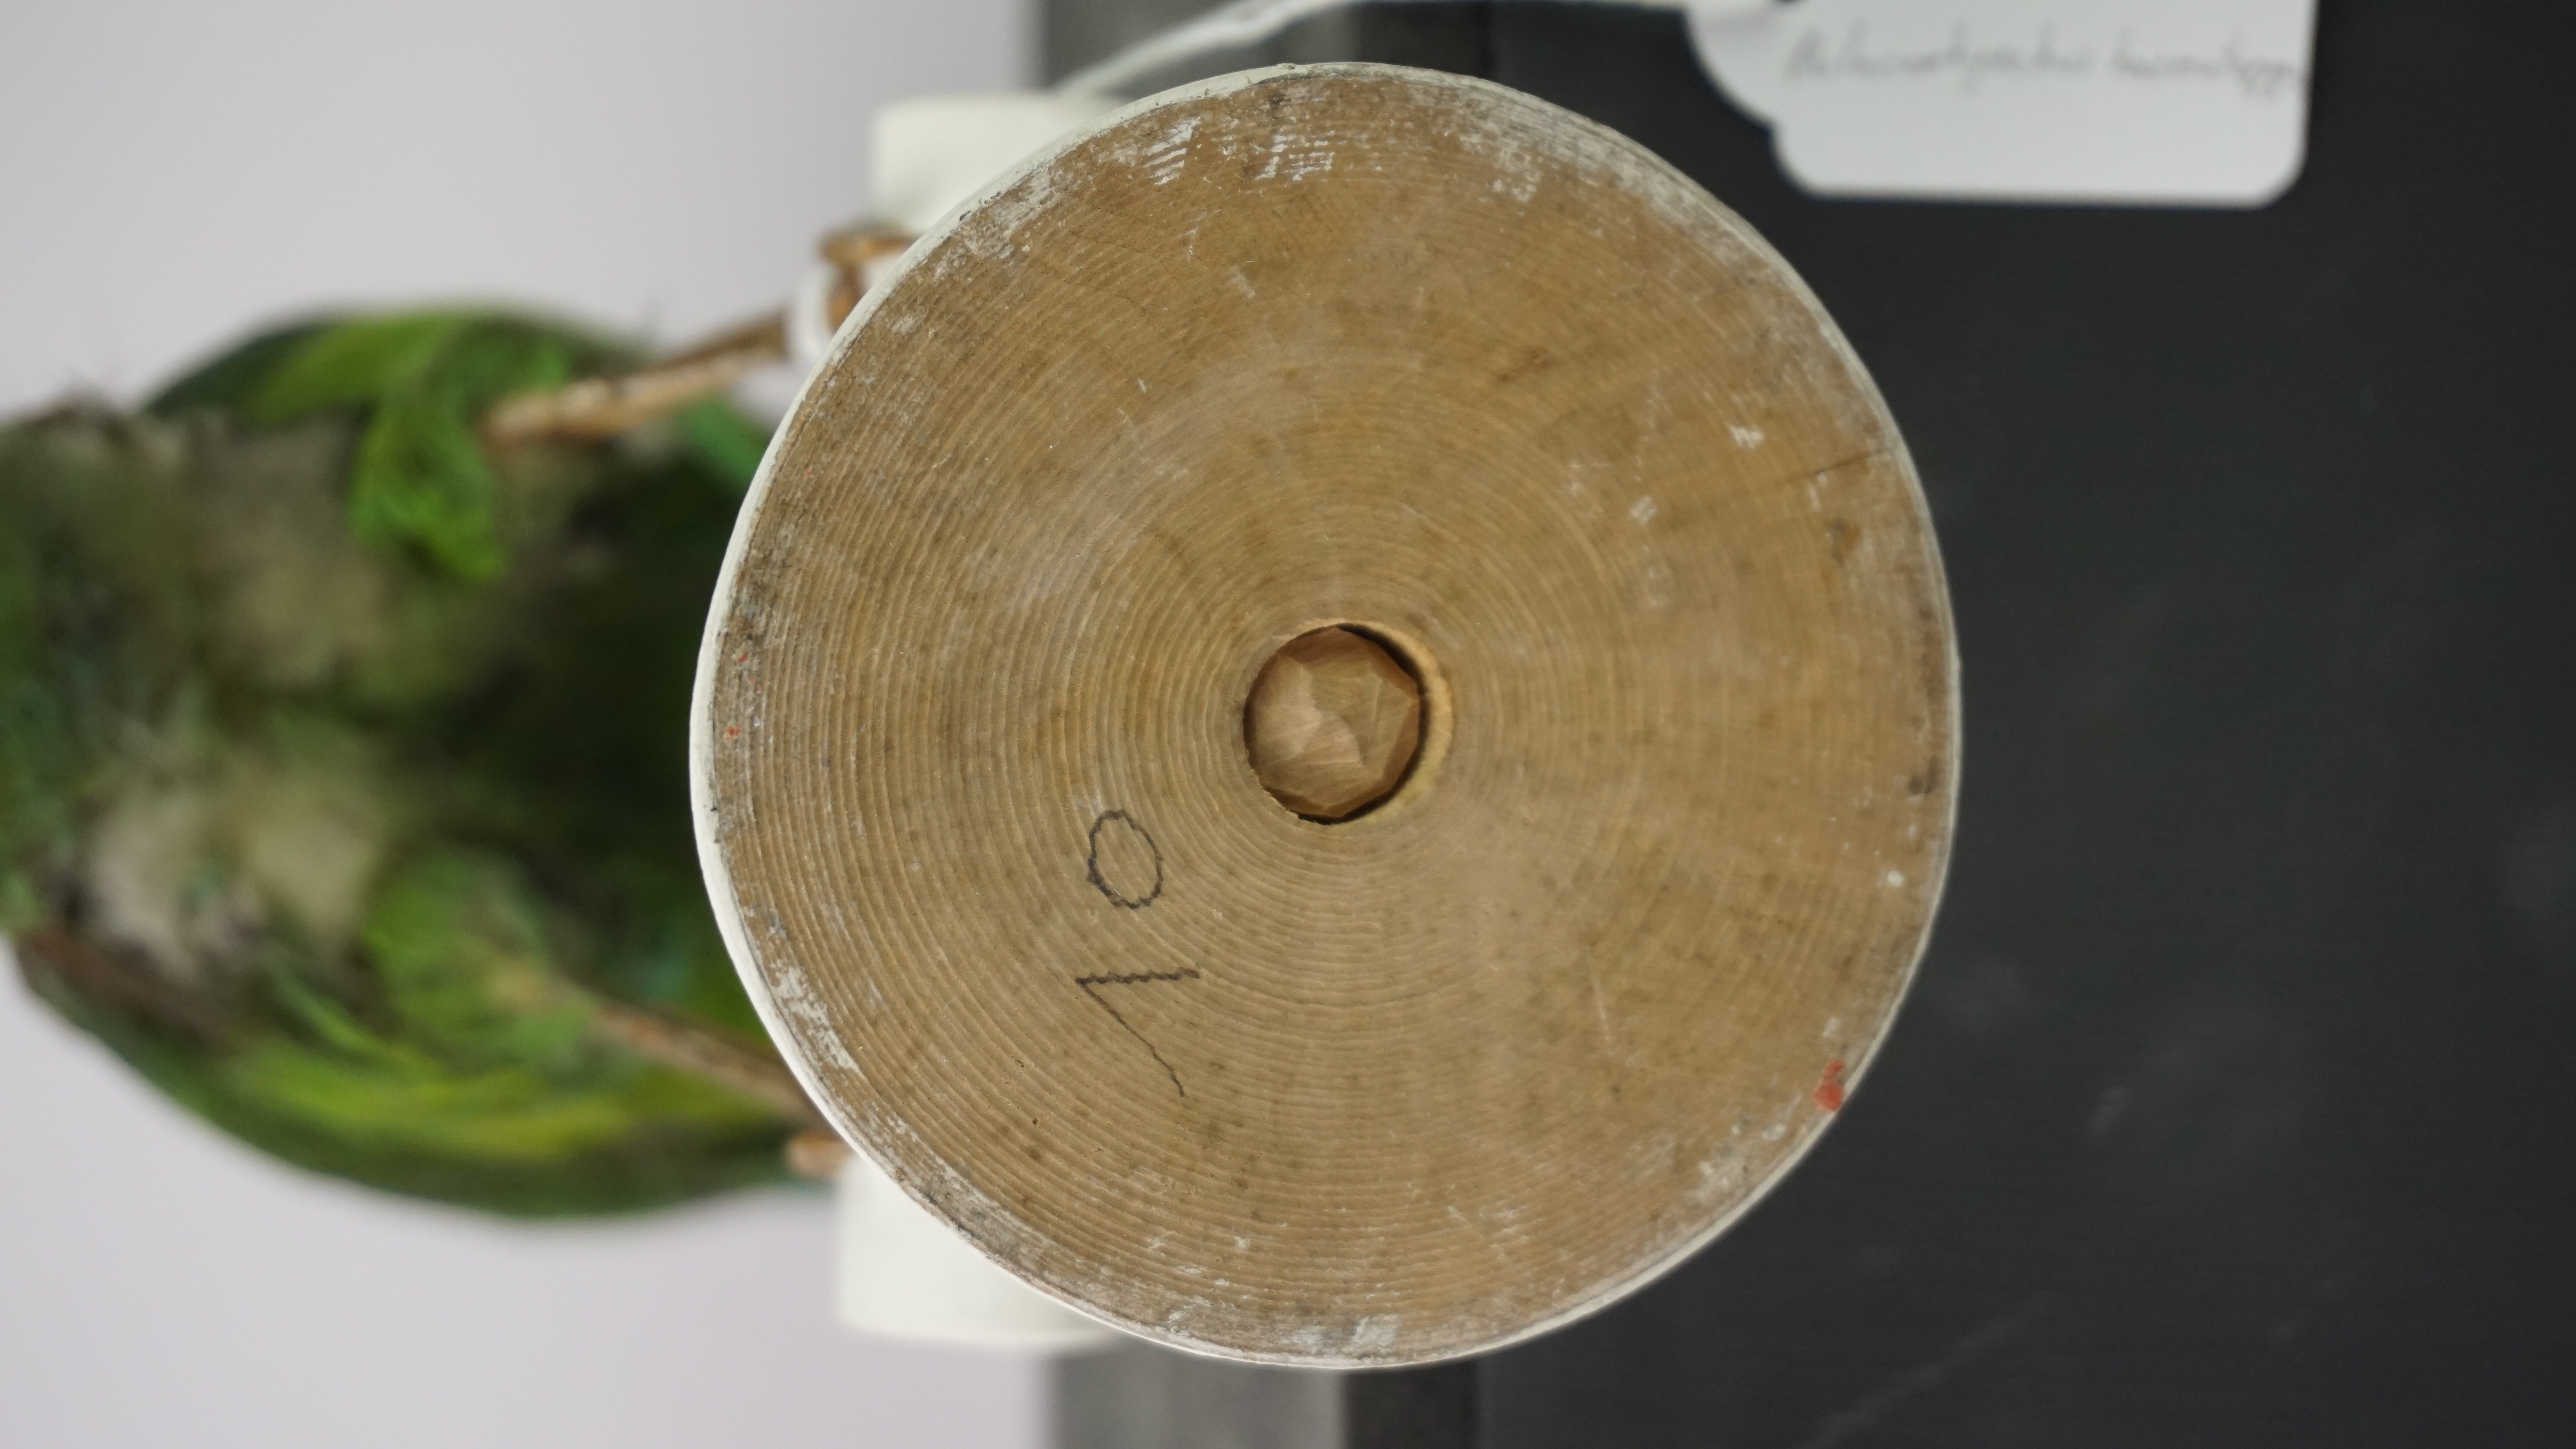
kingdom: Animalia
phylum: Chordata
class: Aves
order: Piciformes
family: Ramphastidae
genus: Aulacorhynchus
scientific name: Aulacorhynchus haematopygus
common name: Crimson-rumped toucanet
